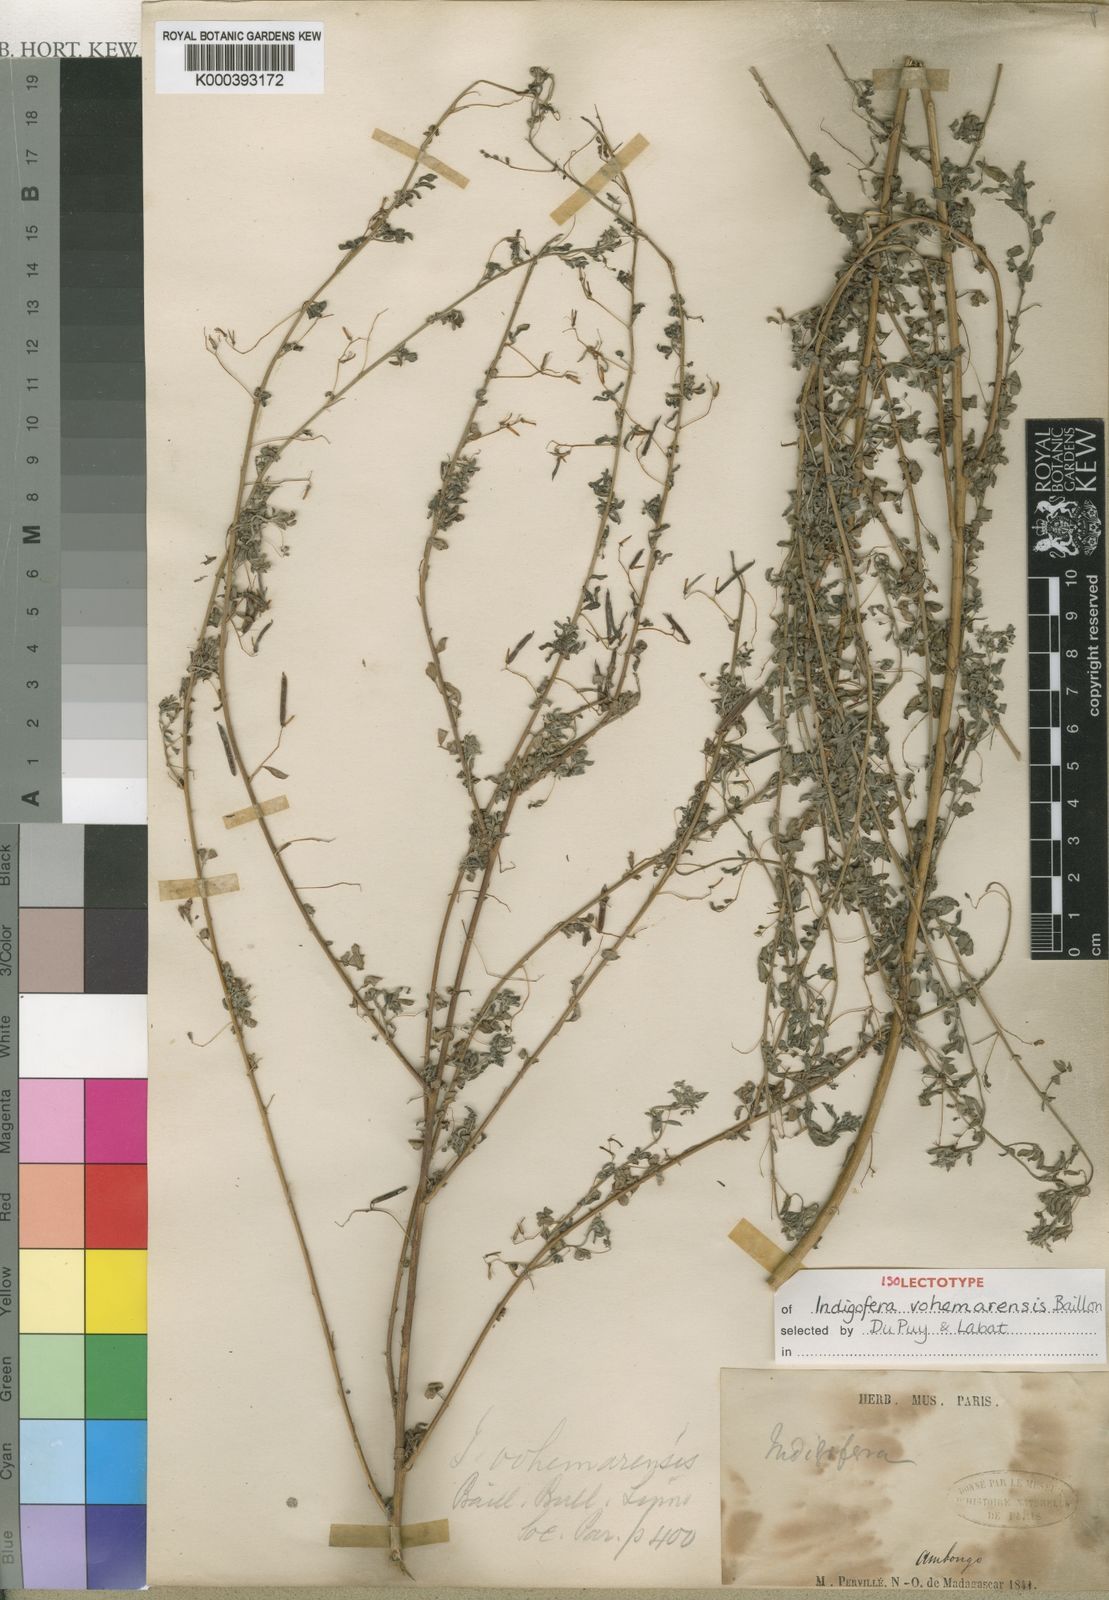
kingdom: Plantae
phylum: Tracheophyta
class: Magnoliopsida
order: Fabales
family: Fabaceae
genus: Indigofera
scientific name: Indigofera vohemarensis
